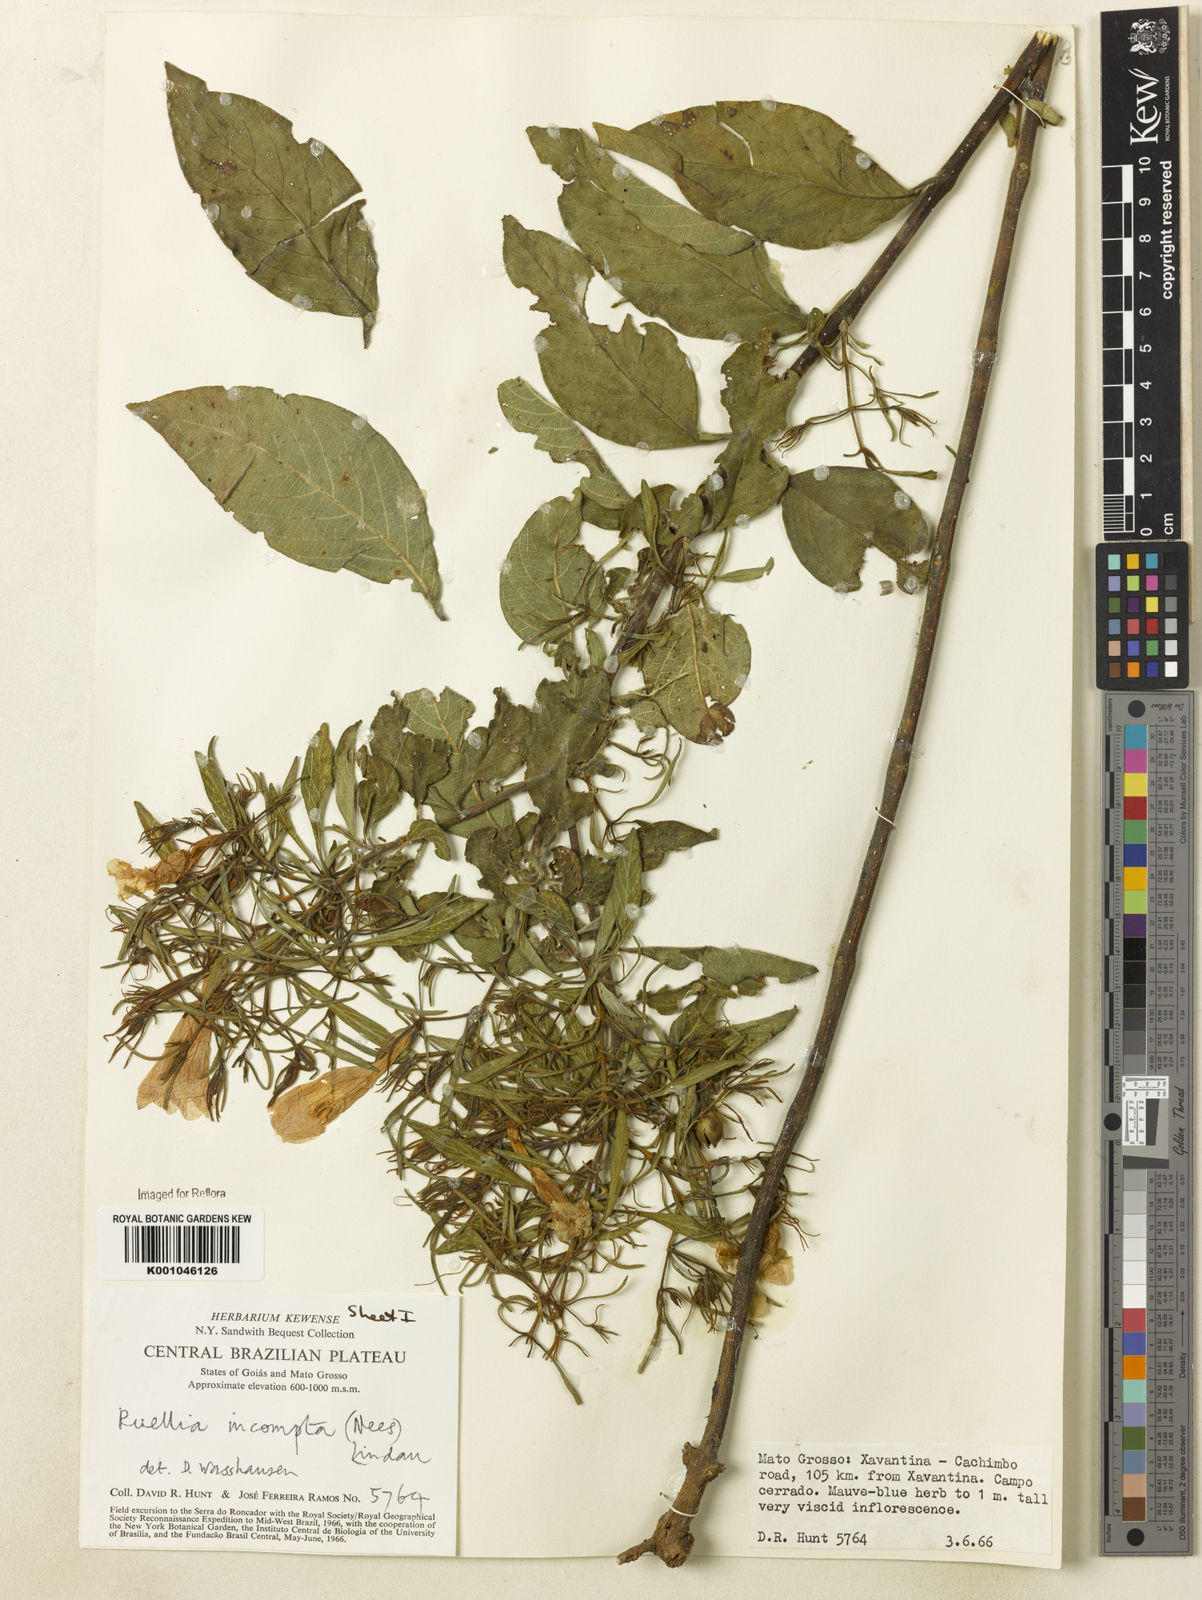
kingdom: Plantae
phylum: Tracheophyta
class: Magnoliopsida
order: Lamiales
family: Acanthaceae
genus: Ruellia
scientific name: Ruellia
